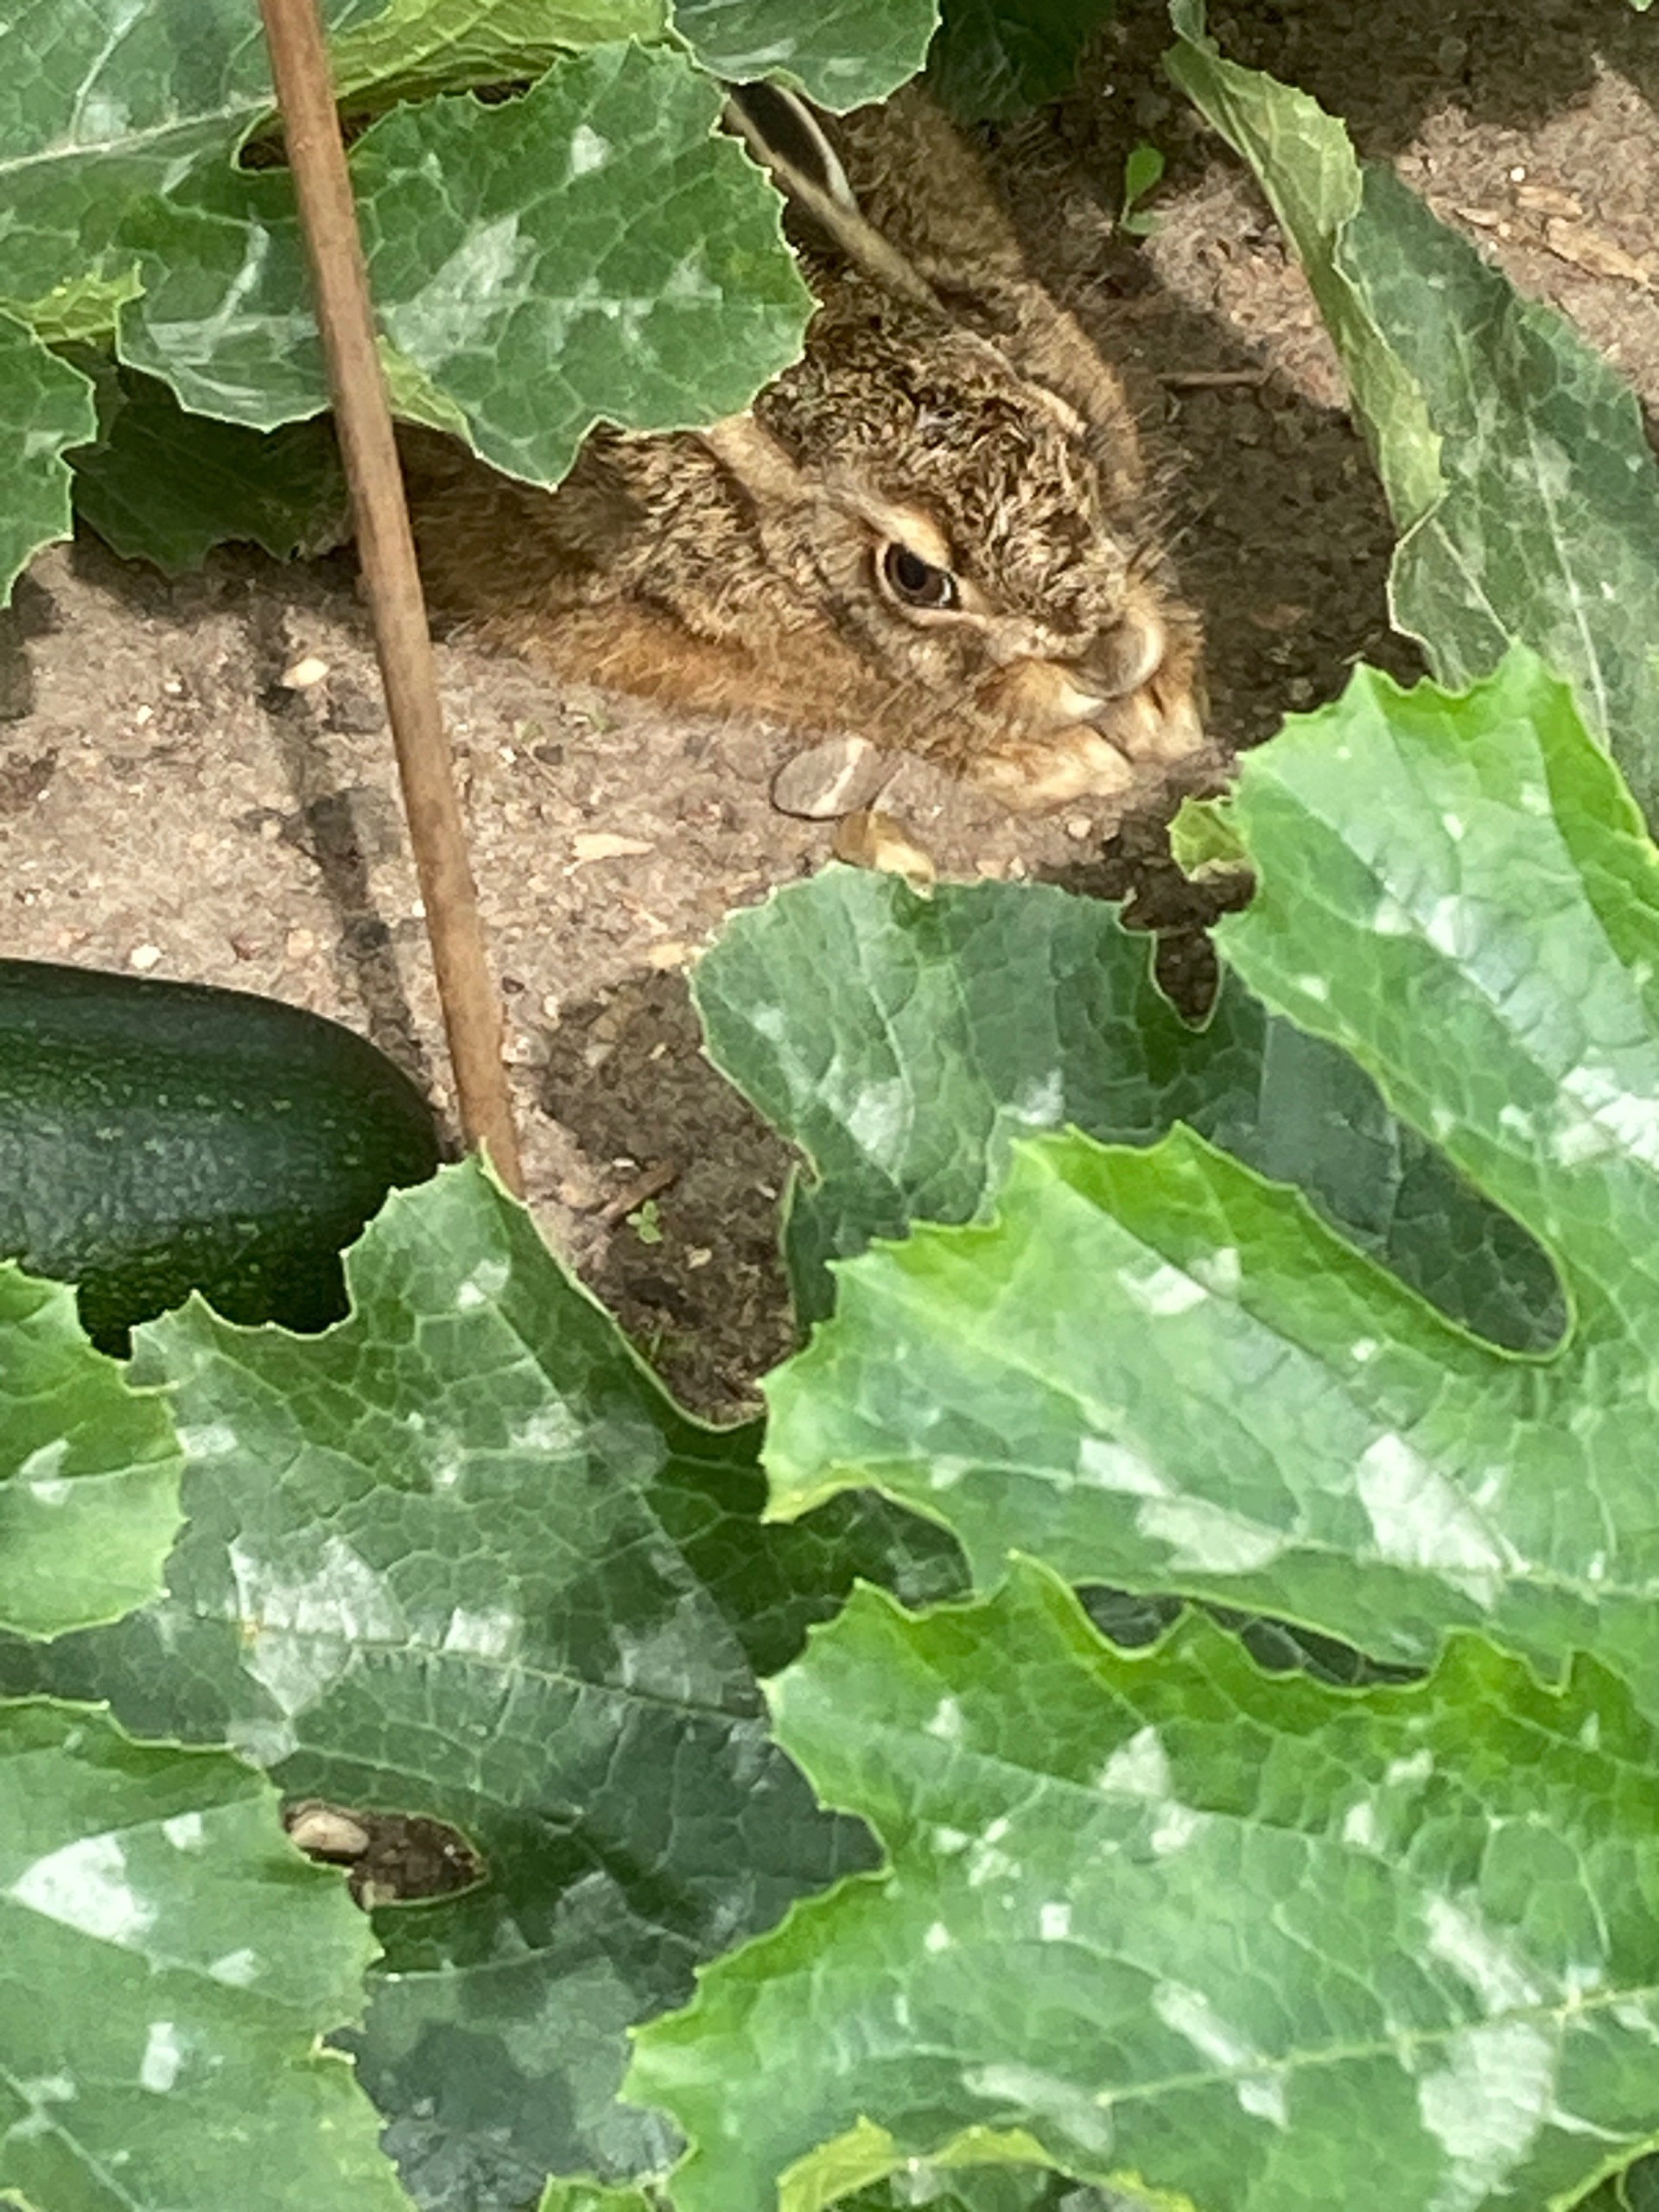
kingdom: Animalia
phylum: Chordata
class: Mammalia
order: Lagomorpha
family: Leporidae
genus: Lepus
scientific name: Lepus europaeus
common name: Hare
